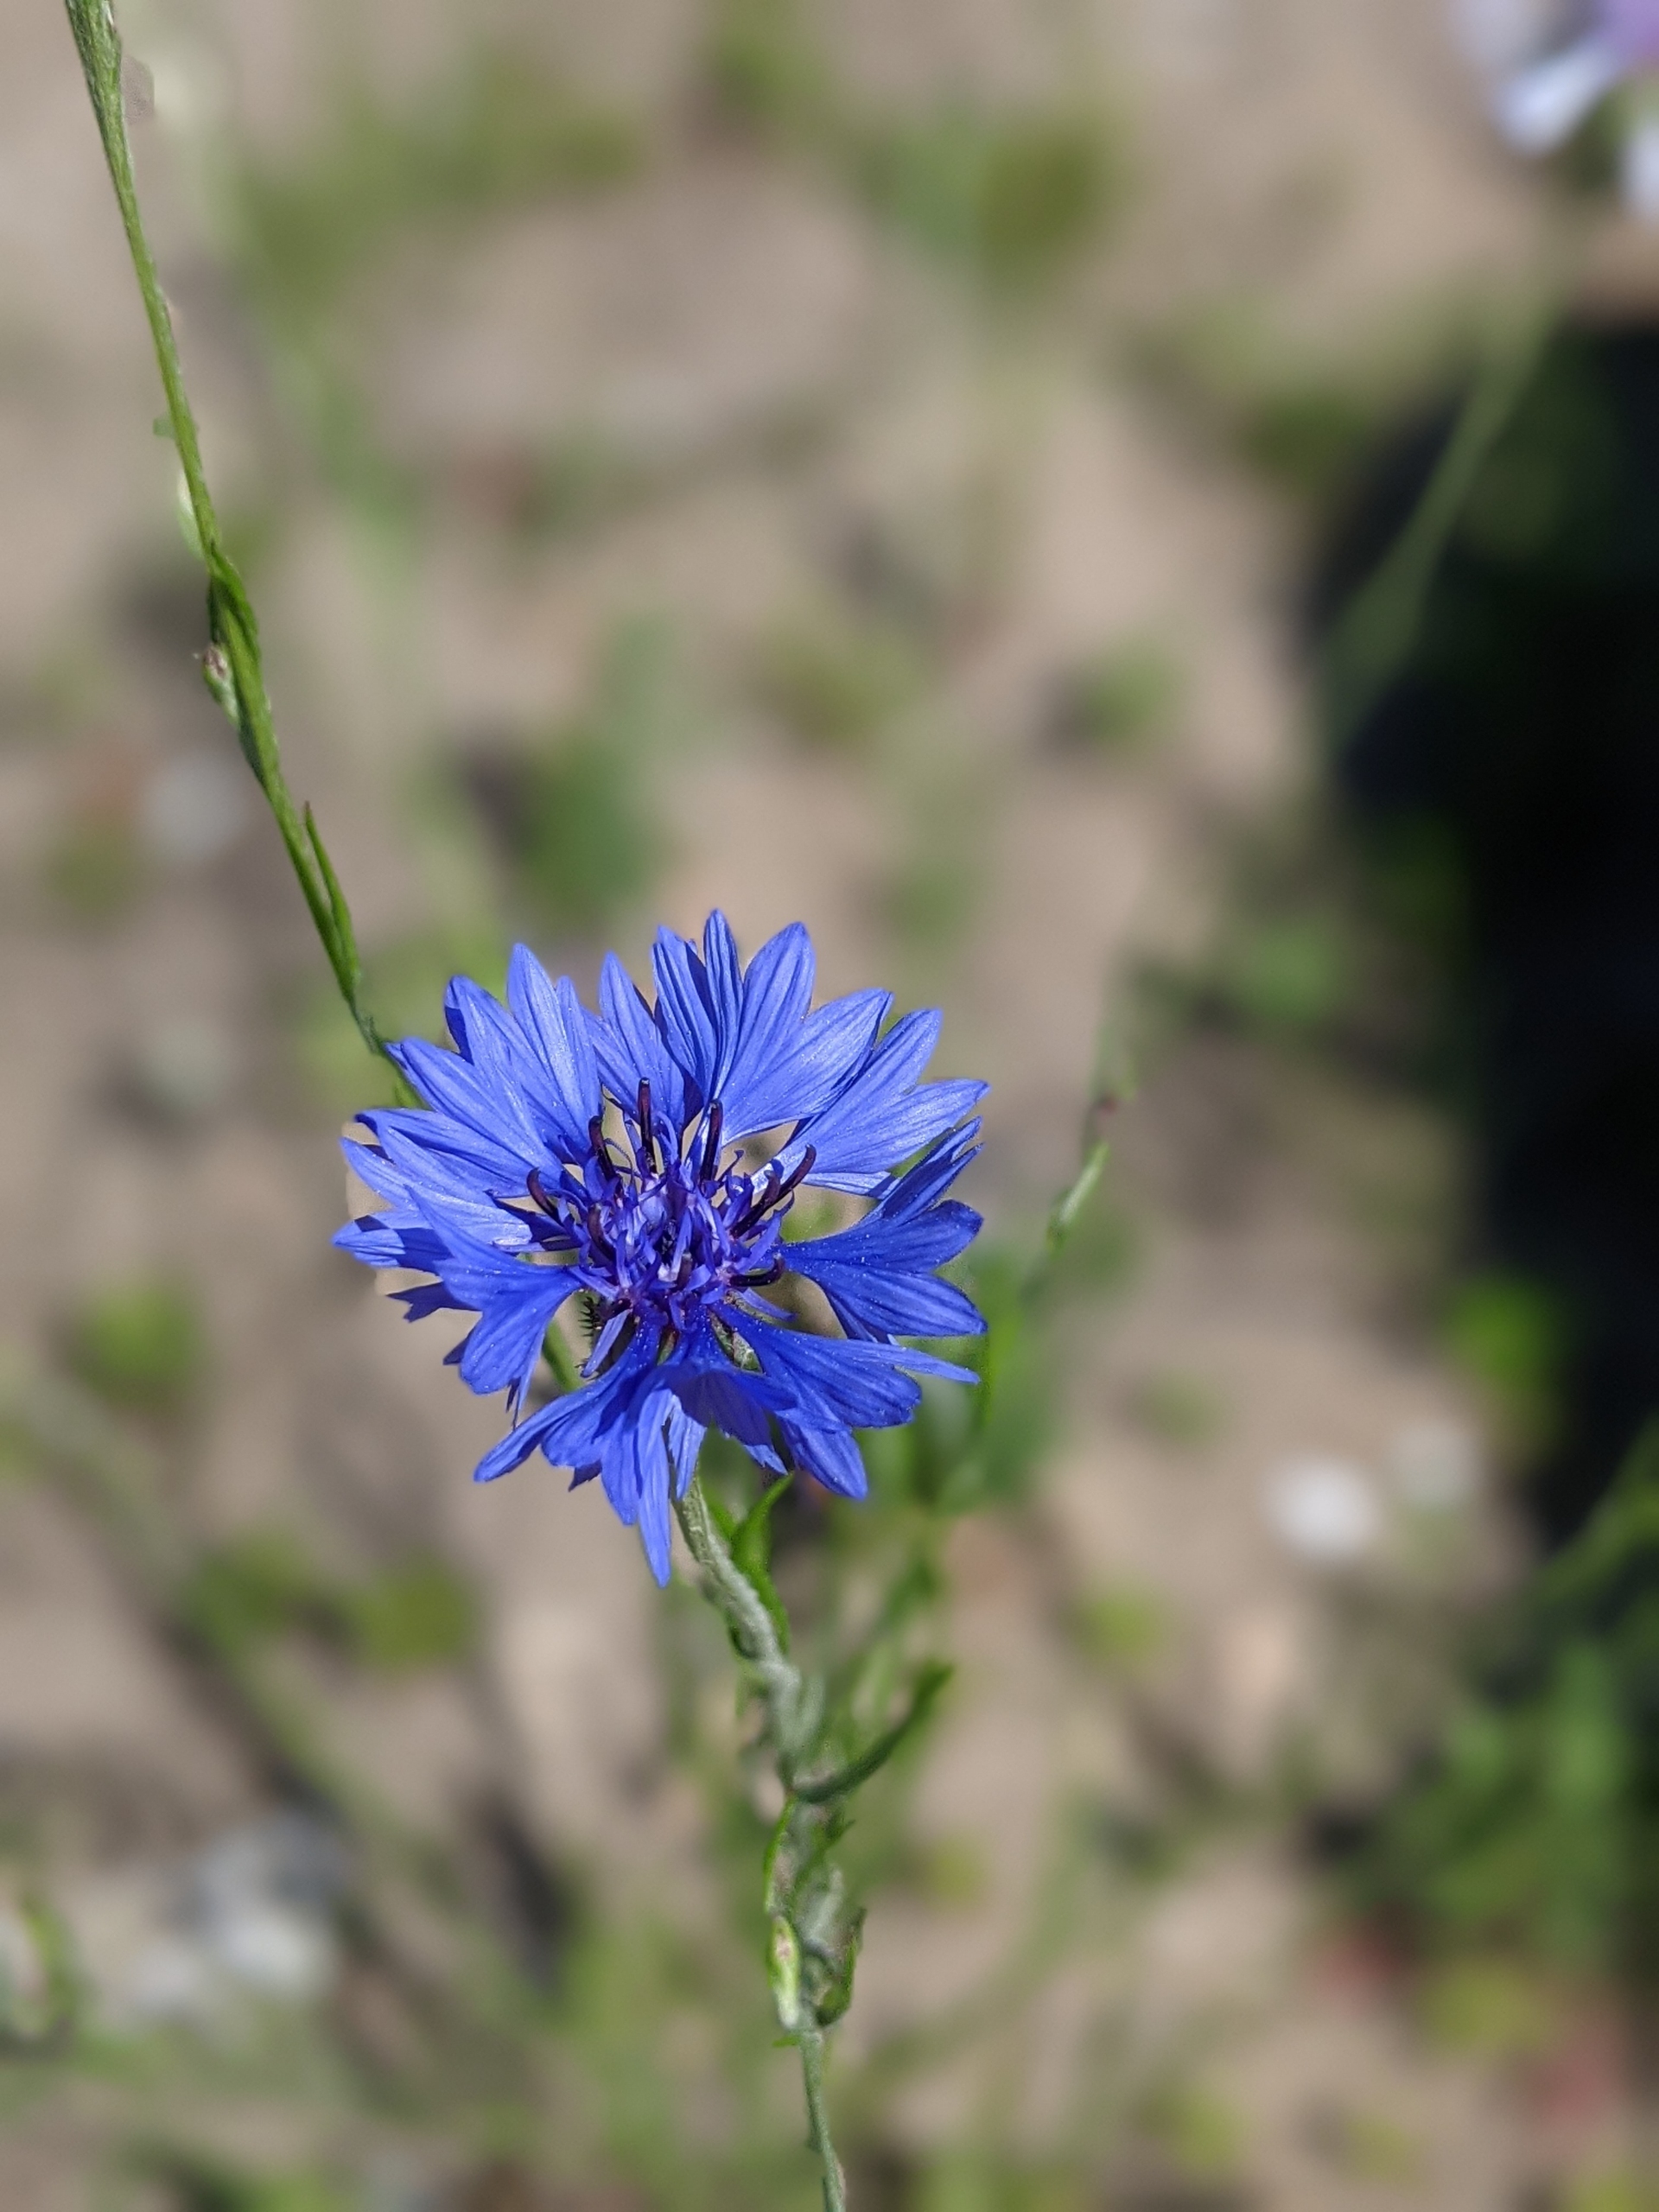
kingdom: Plantae
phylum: Tracheophyta
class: Magnoliopsida
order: Asterales
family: Asteraceae
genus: Centaurea
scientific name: Centaurea cyanus
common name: Kornblomst
